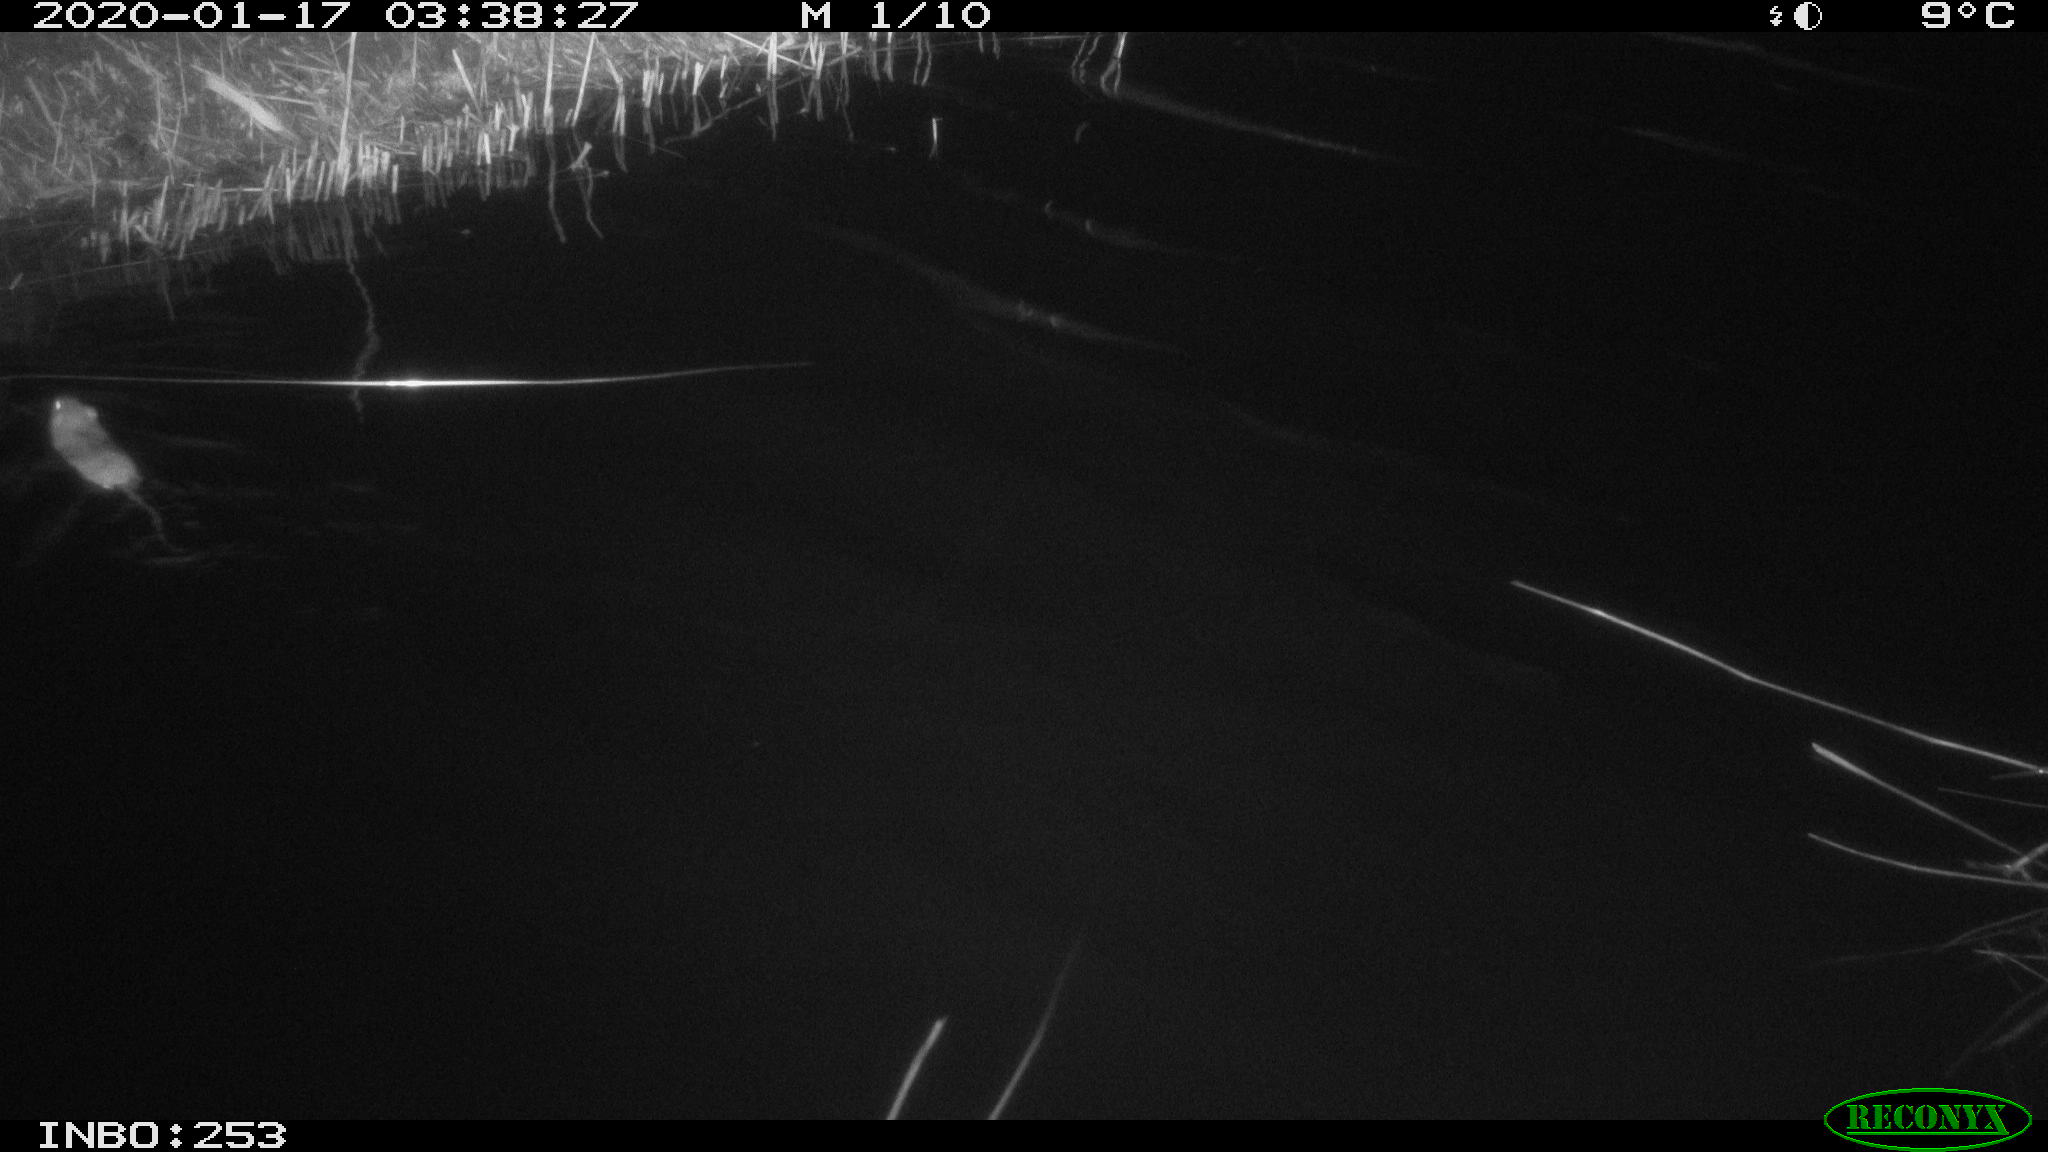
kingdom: Animalia
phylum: Chordata
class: Mammalia
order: Rodentia
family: Muridae
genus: Rattus
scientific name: Rattus norvegicus
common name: Brown rat
